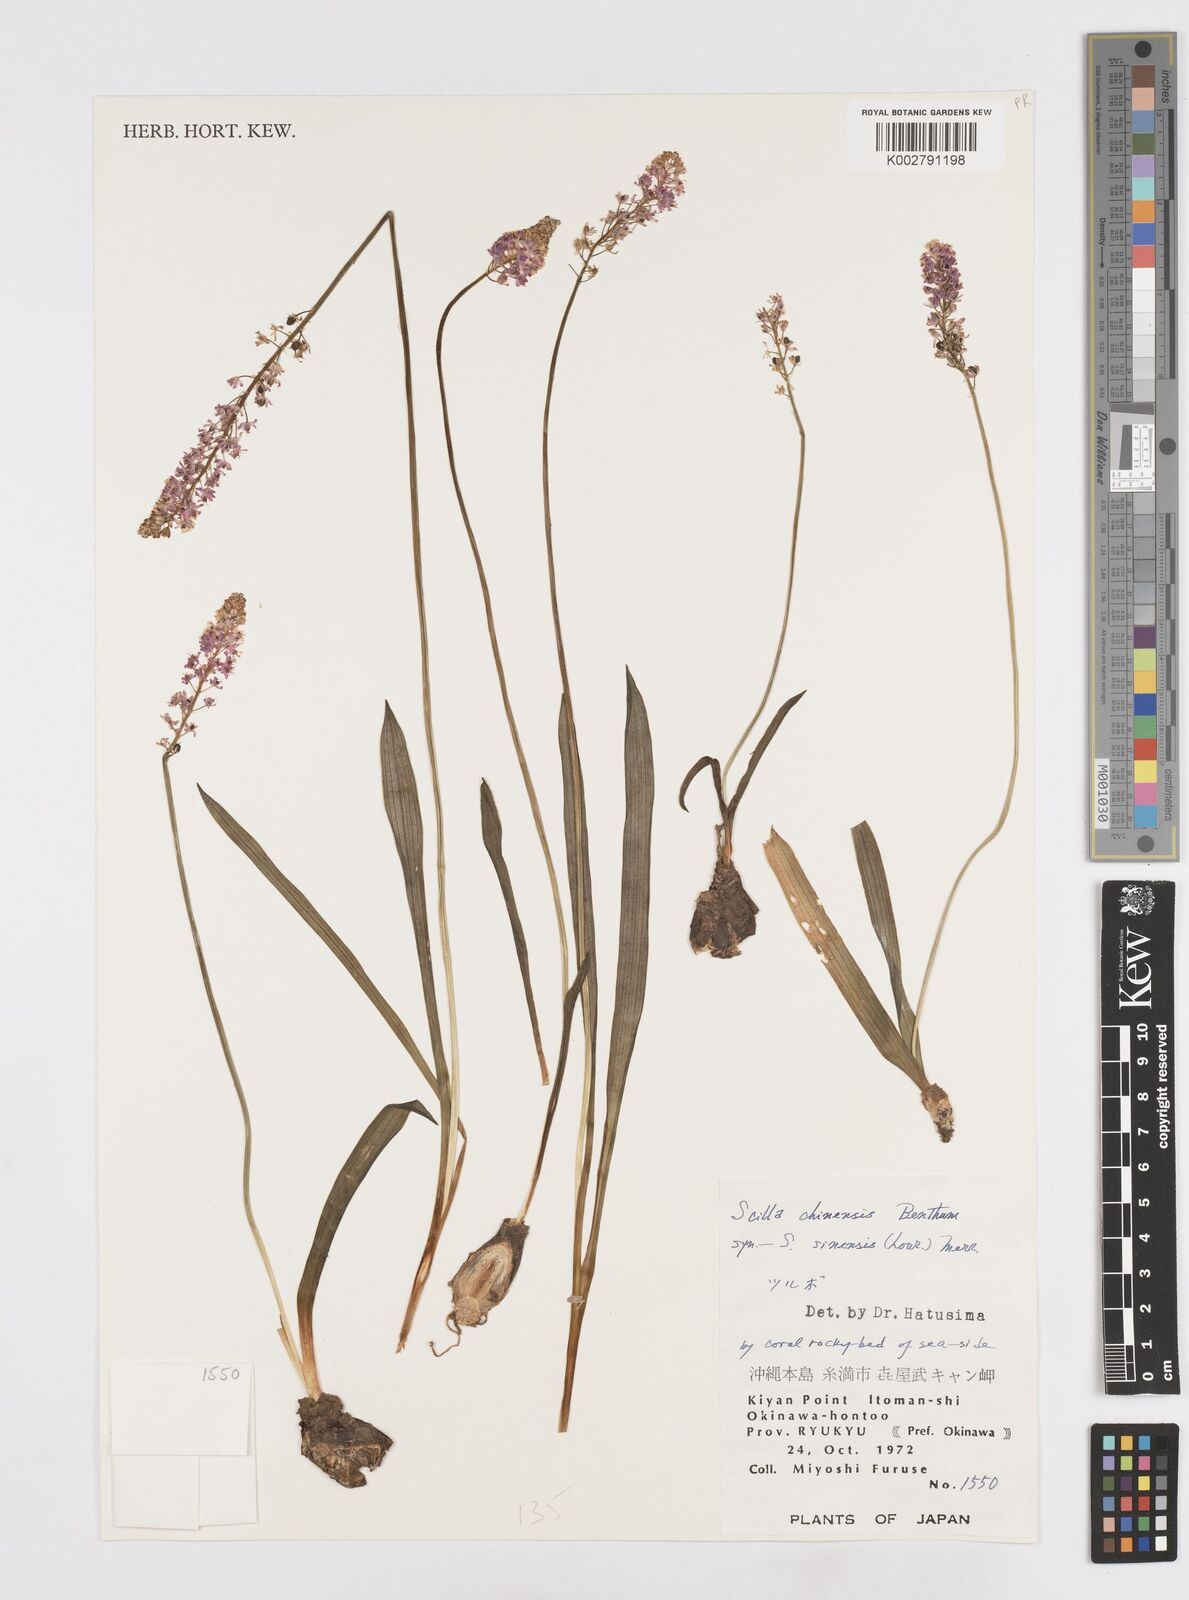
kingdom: Plantae
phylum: Tracheophyta
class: Liliopsida
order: Asparagales
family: Asparagaceae
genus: Barnardia
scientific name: Barnardia japonica
